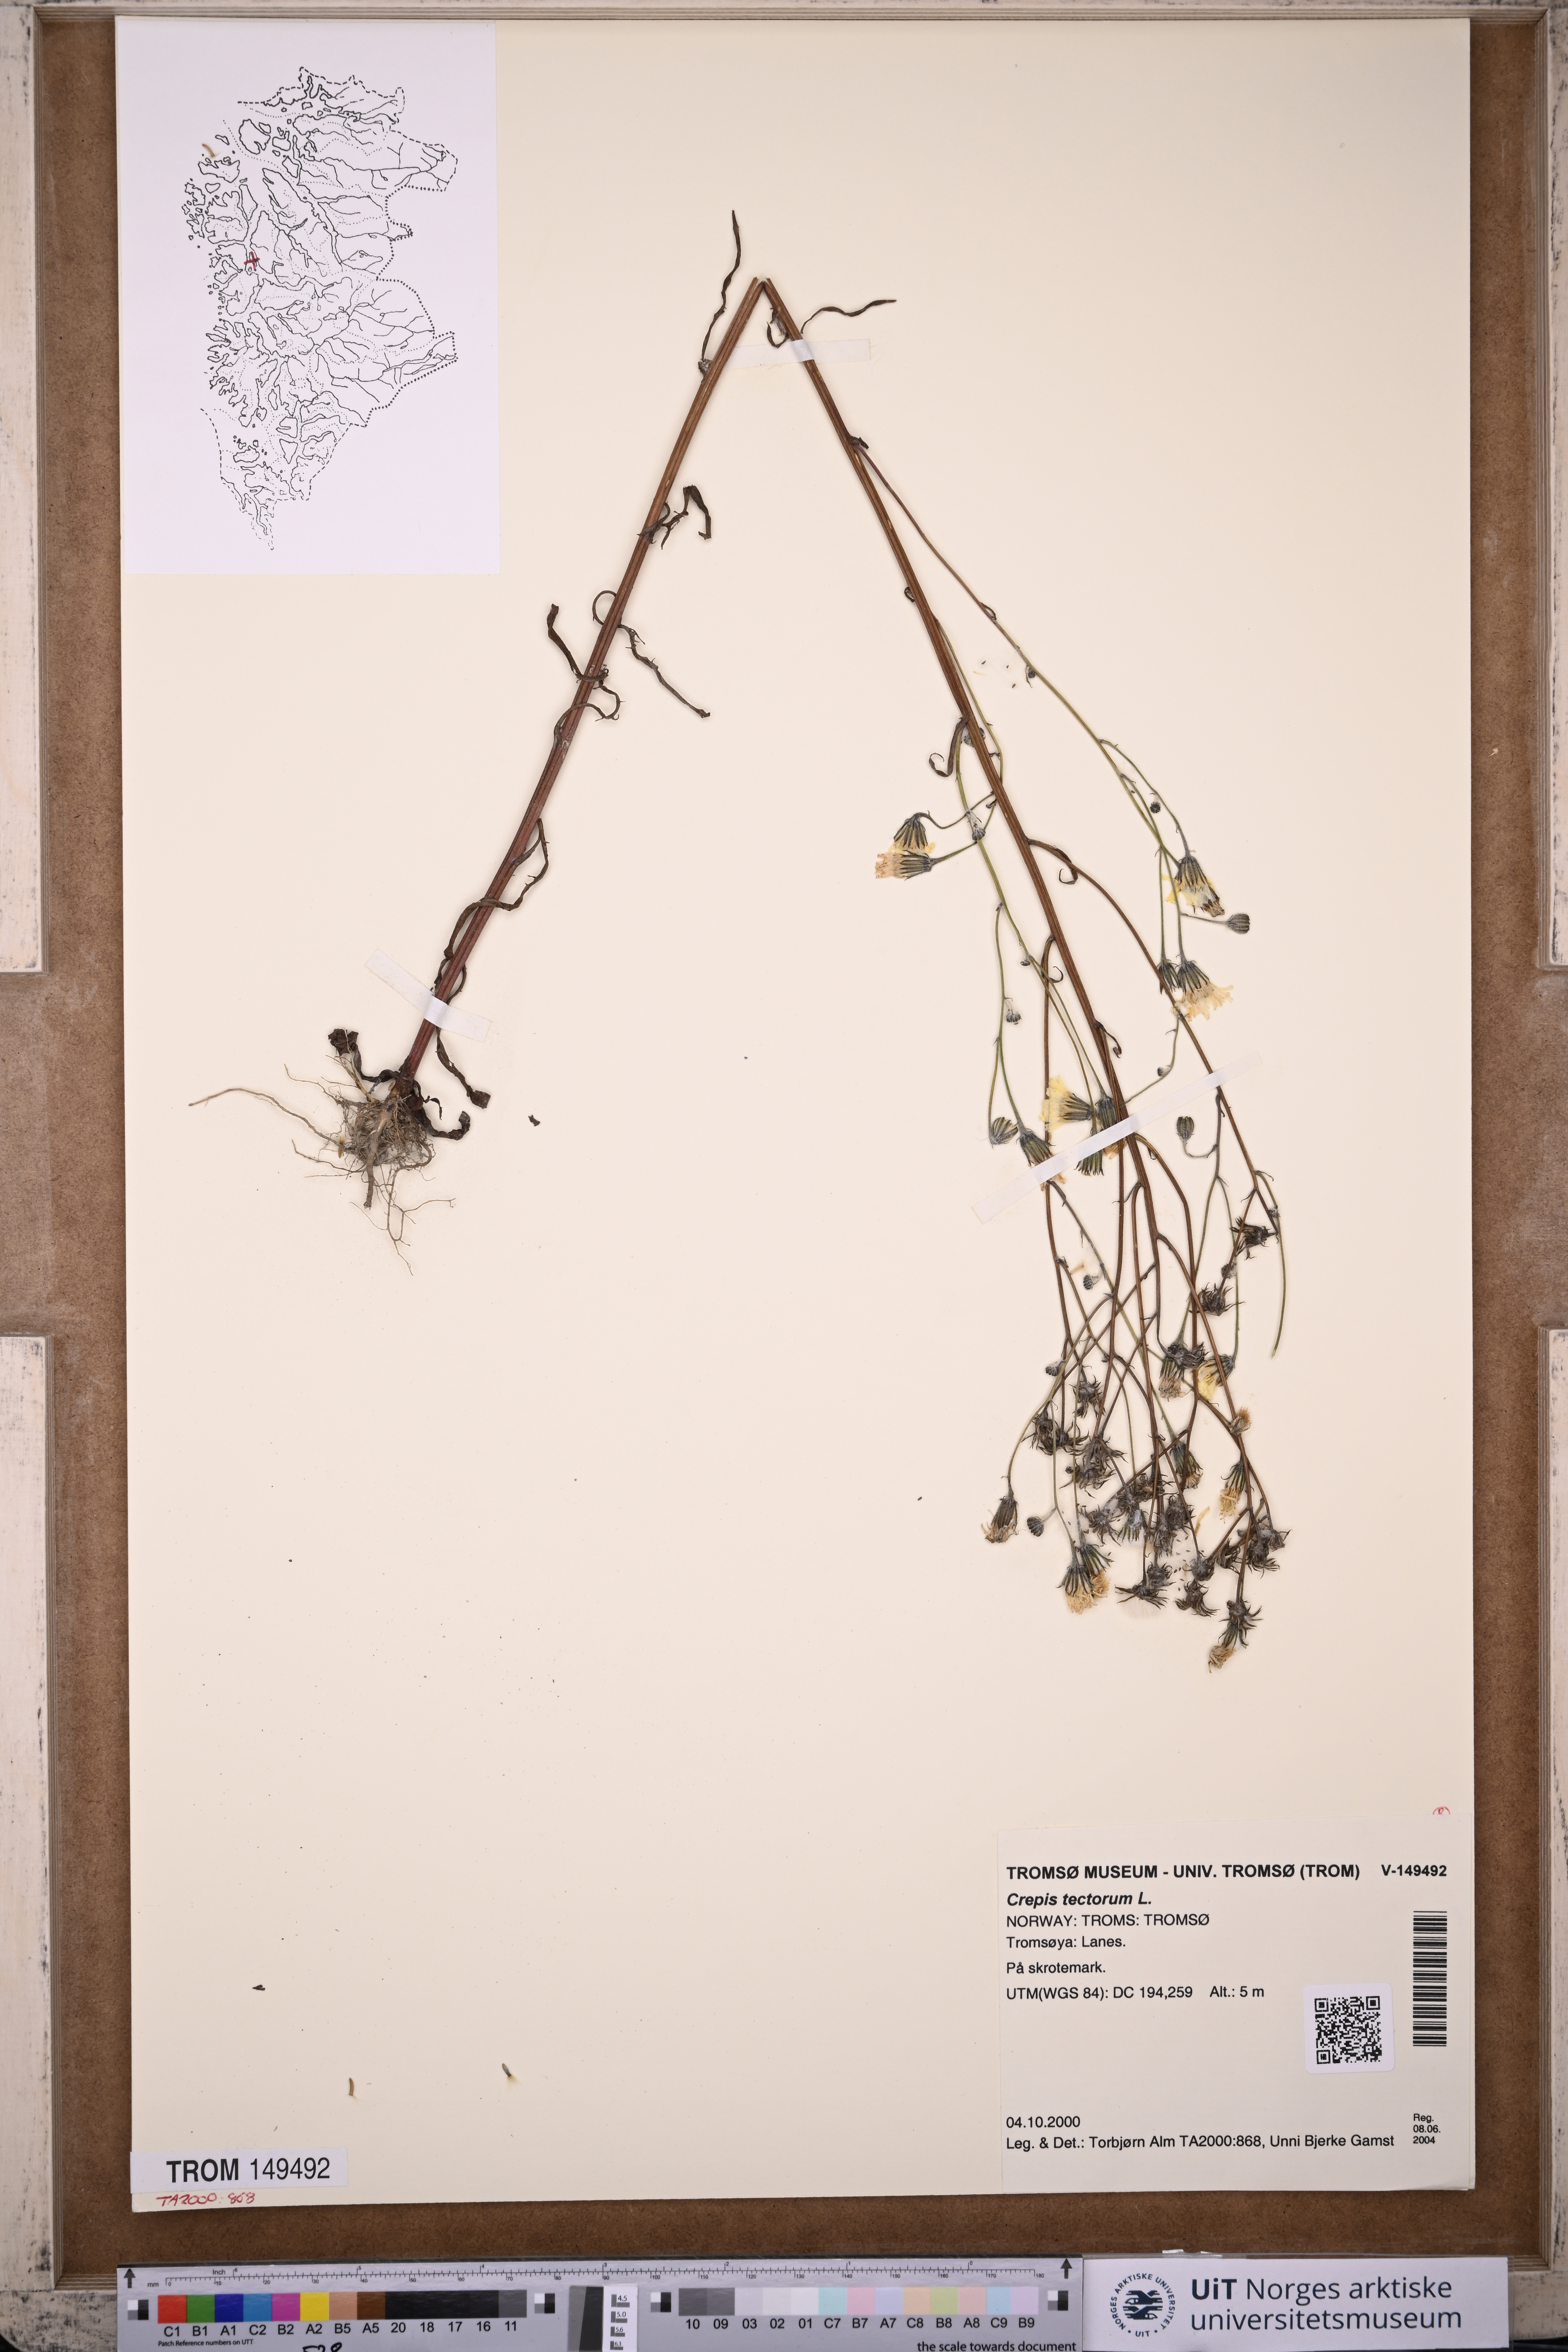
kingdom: Plantae
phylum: Tracheophyta
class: Magnoliopsida
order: Asterales
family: Asteraceae
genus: Crepis
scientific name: Crepis tectorum
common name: Narrow-leaved hawk's-beard
